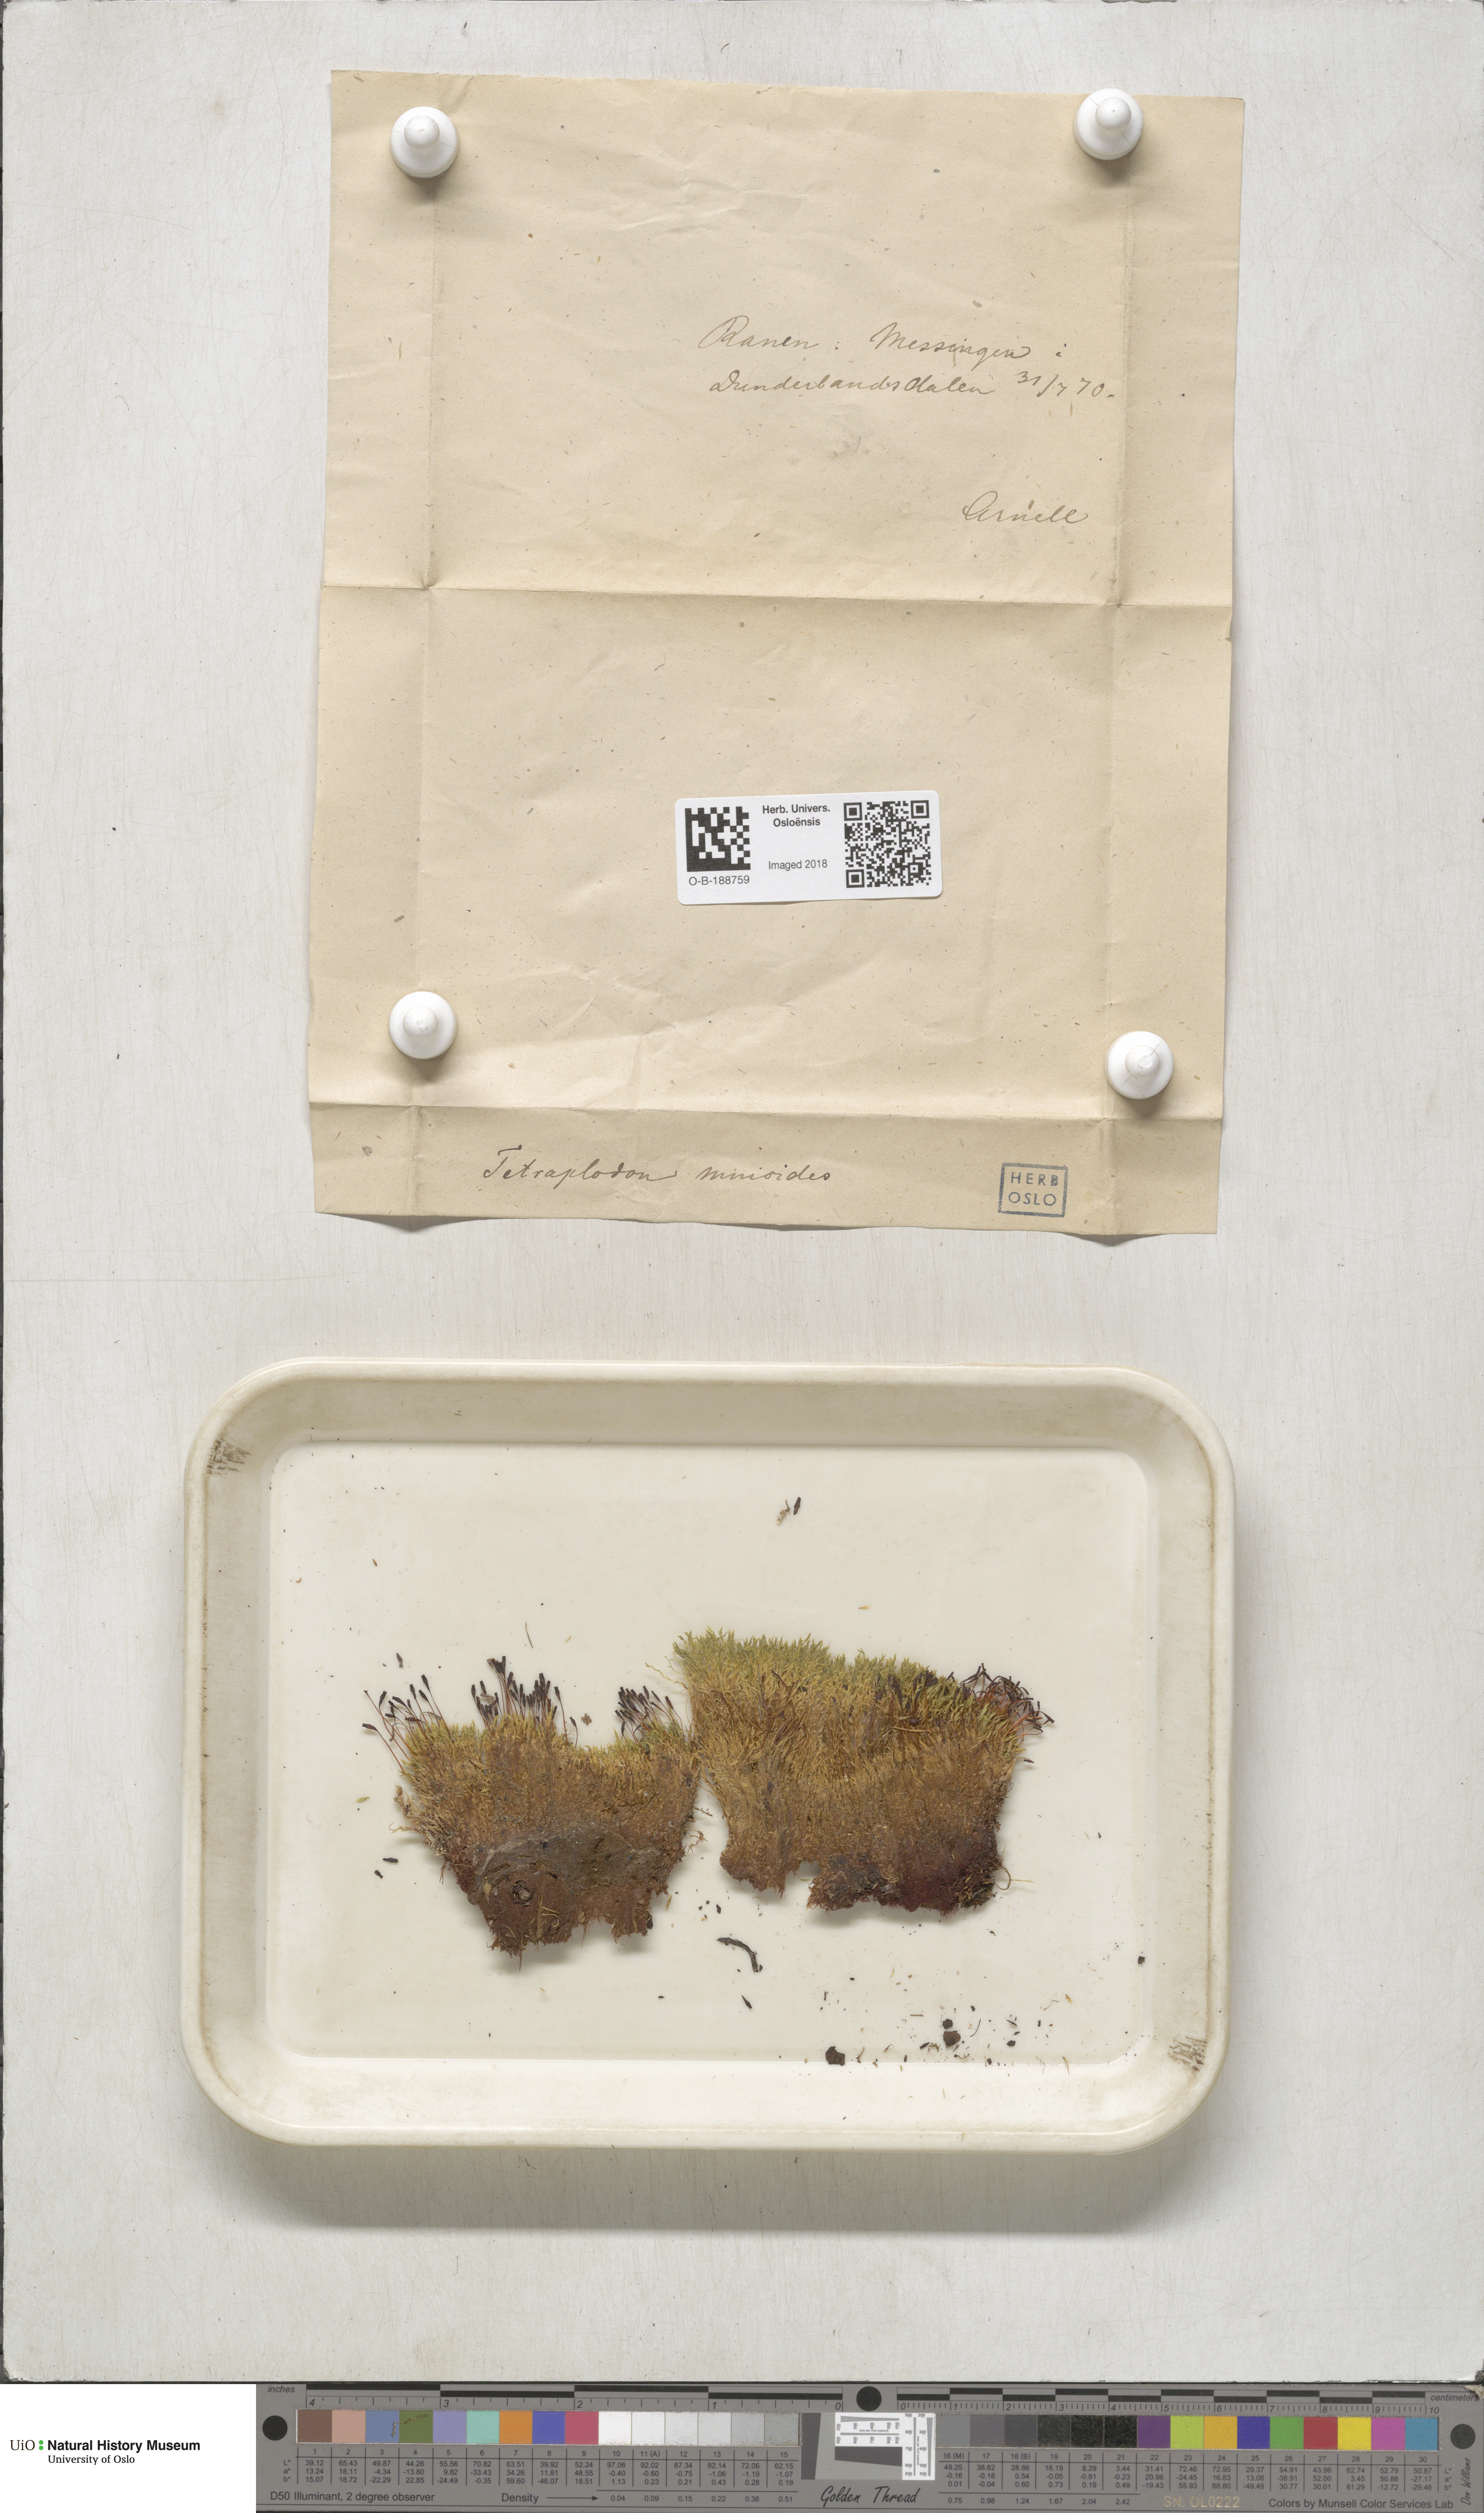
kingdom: Plantae
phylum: Bryophyta
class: Bryopsida
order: Splachnales
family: Splachnaceae
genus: Tetraplodon
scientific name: Tetraplodon mnioides
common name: Entire-leaved nitrogen moss
